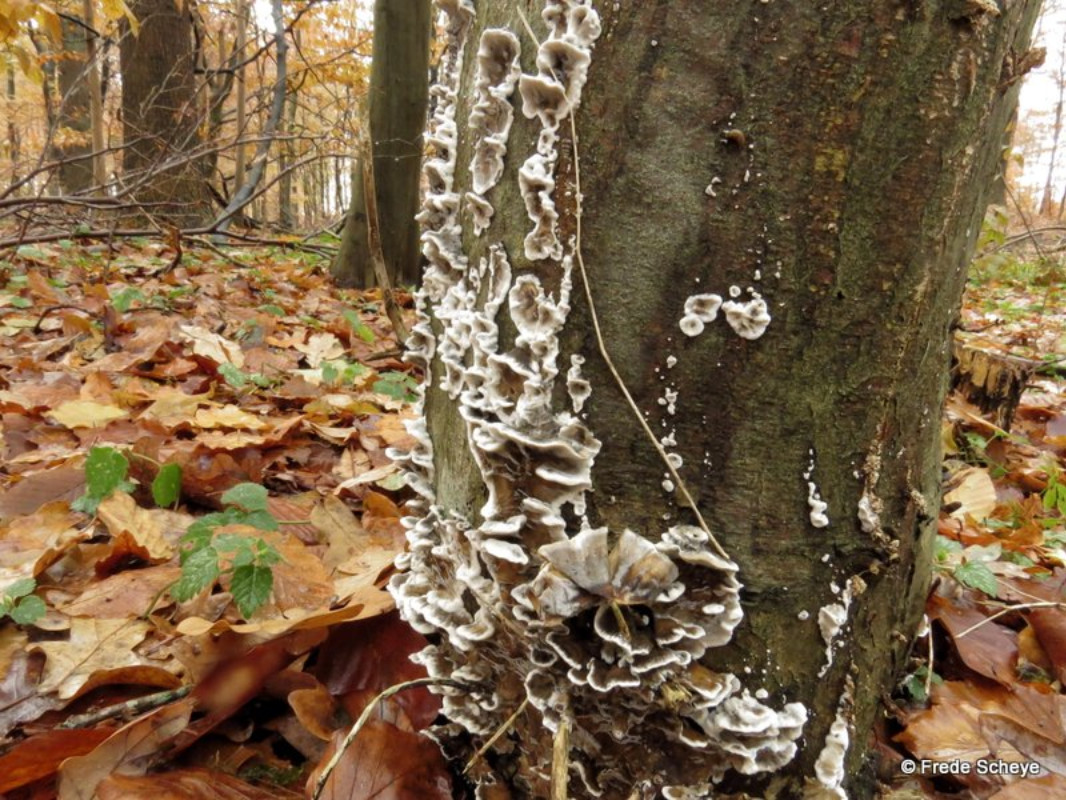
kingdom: Fungi
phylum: Basidiomycota
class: Agaricomycetes
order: Polyporales
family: Phanerochaetaceae
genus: Bjerkandera
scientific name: Bjerkandera adusta
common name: sveden sodporesvamp
